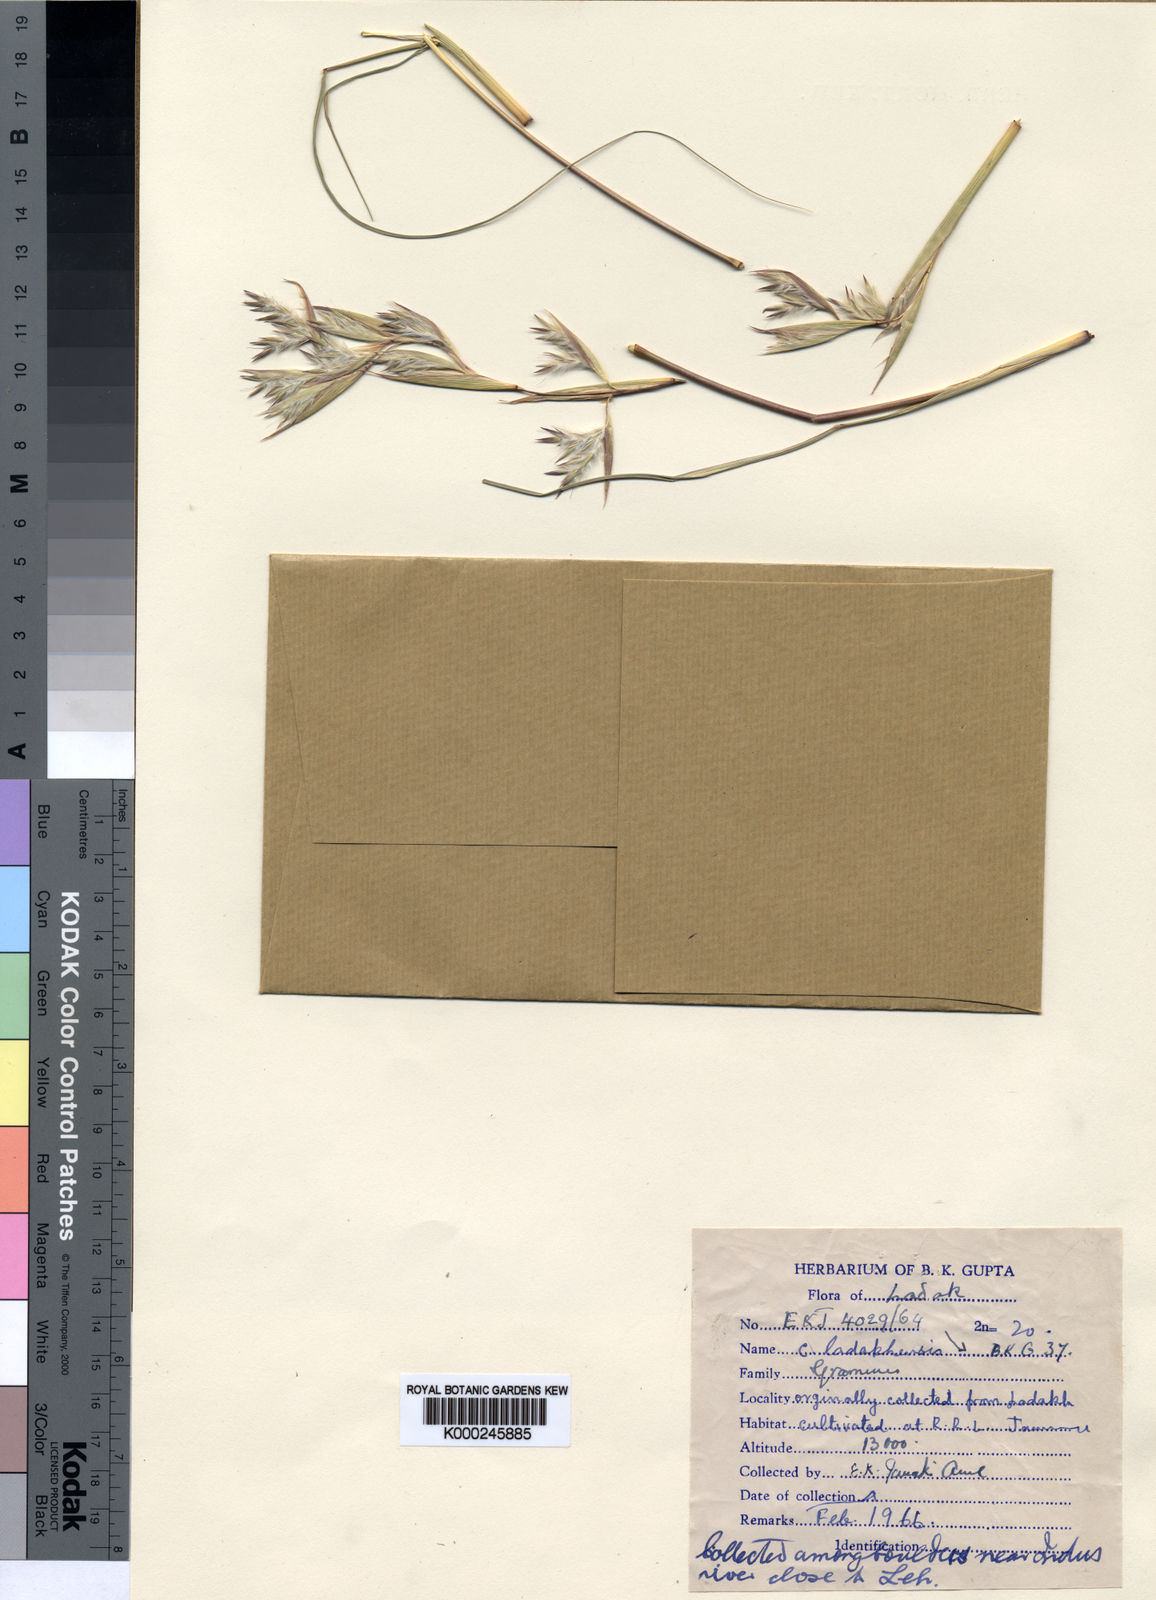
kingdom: Plantae
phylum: Tracheophyta
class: Liliopsida
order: Poales
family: Poaceae
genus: Cymbopogon
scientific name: Cymbopogon
